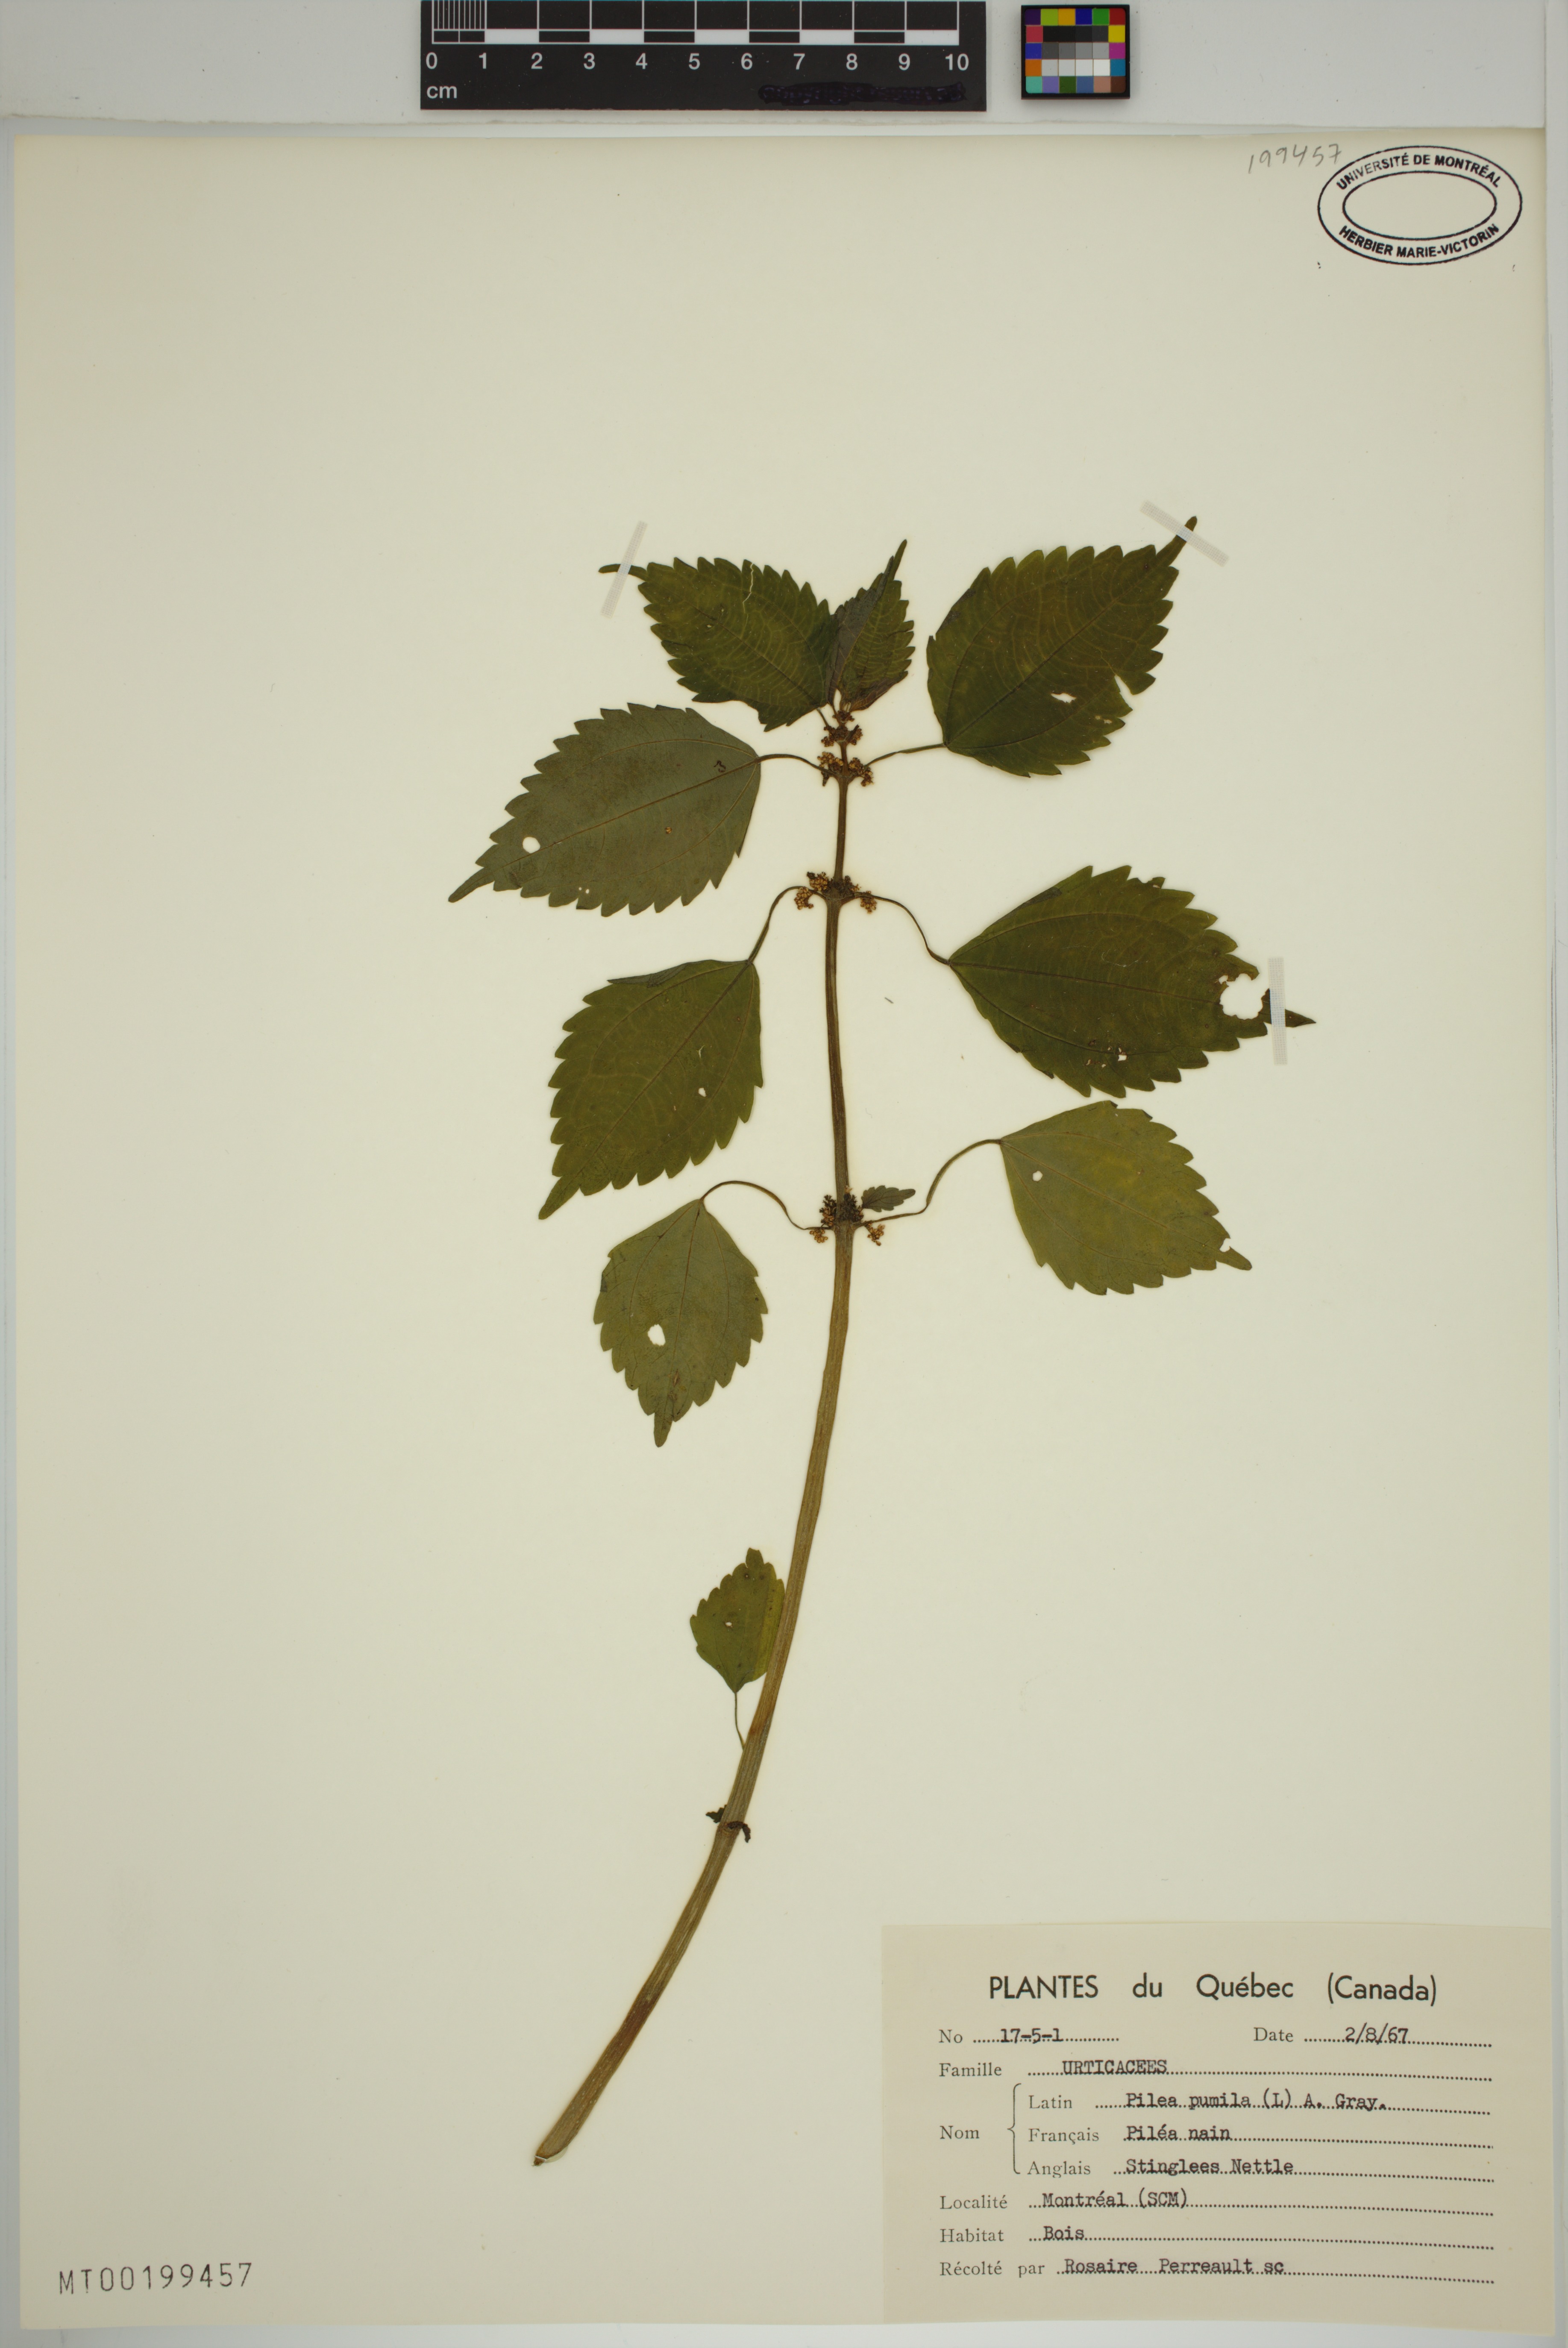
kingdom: Plantae
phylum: Tracheophyta
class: Magnoliopsida
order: Rosales
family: Urticaceae
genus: Pilea
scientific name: Pilea
